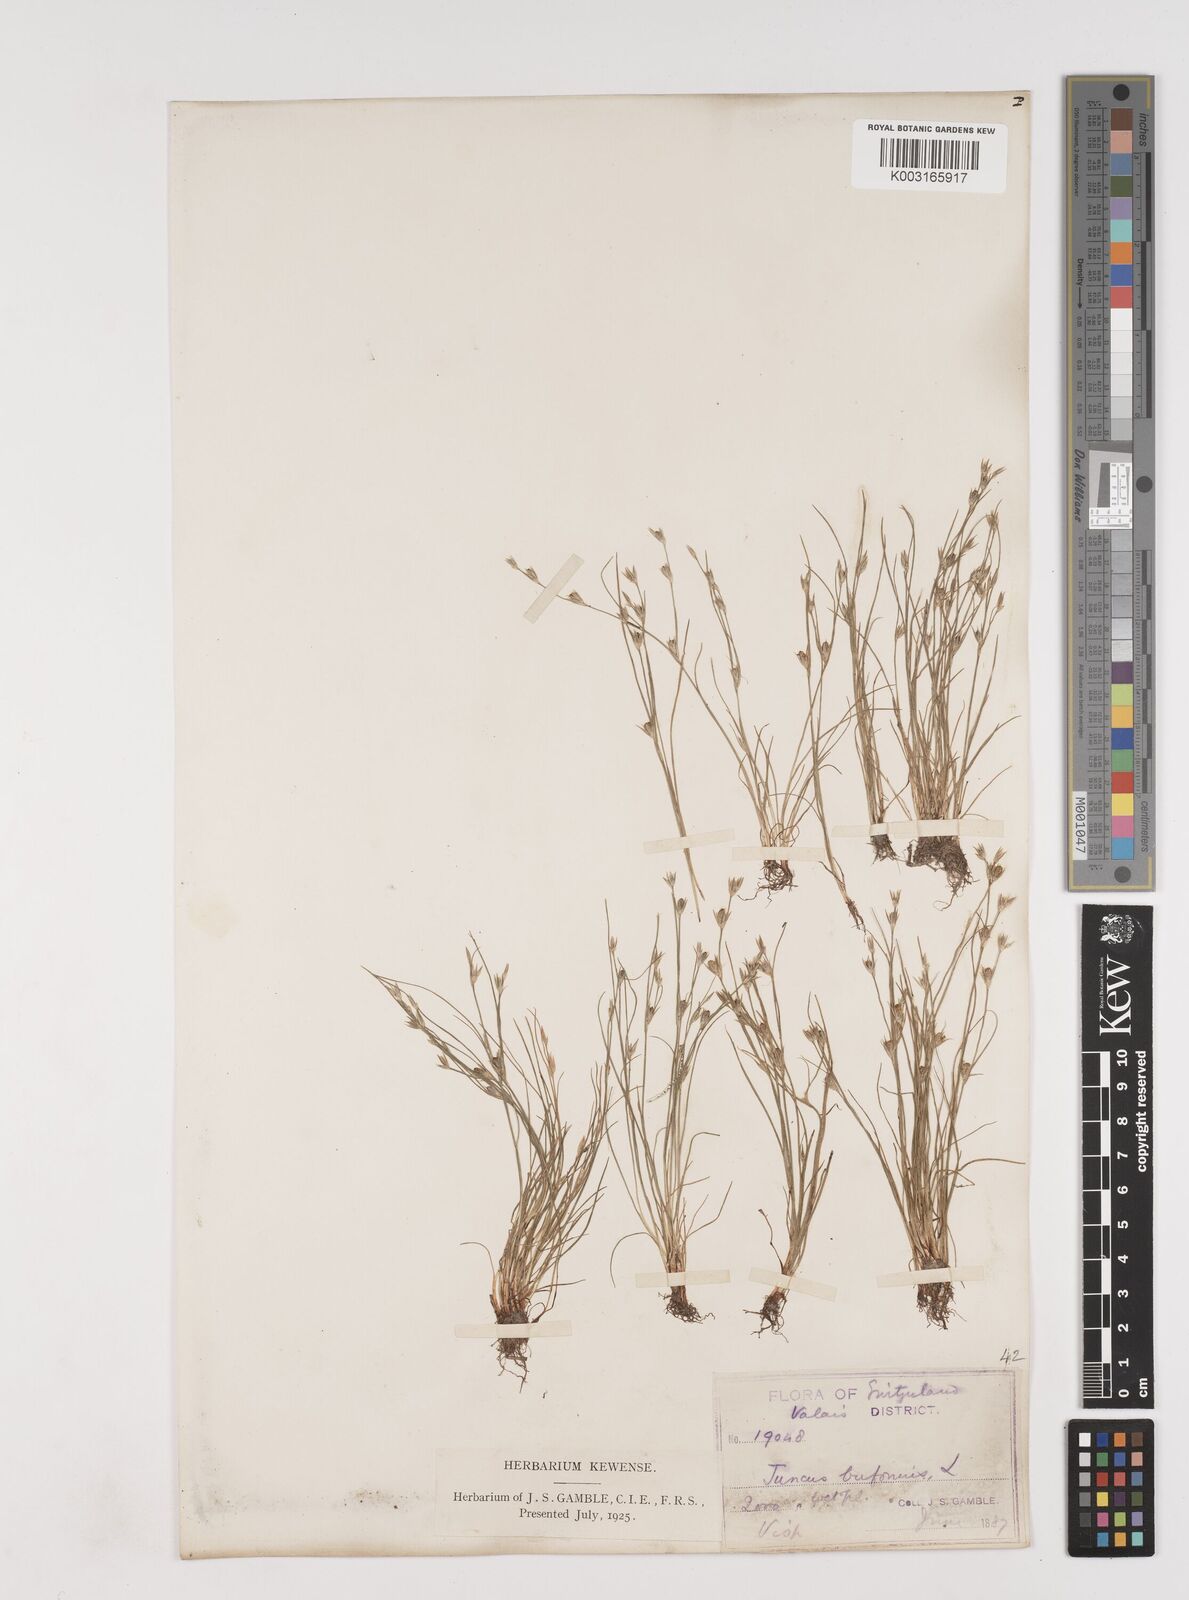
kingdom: Plantae
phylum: Tracheophyta
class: Liliopsida
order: Poales
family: Juncaceae
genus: Juncus
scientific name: Juncus bufonius
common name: Toad rush
